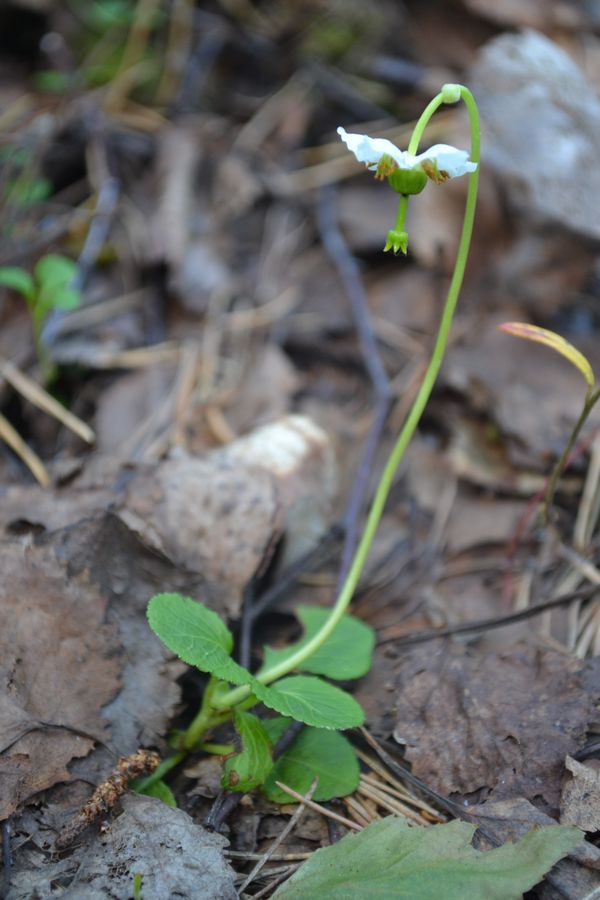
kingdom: Plantae
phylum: Tracheophyta
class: Magnoliopsida
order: Ericales
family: Ericaceae
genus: Moneses
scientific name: Moneses uniflora
